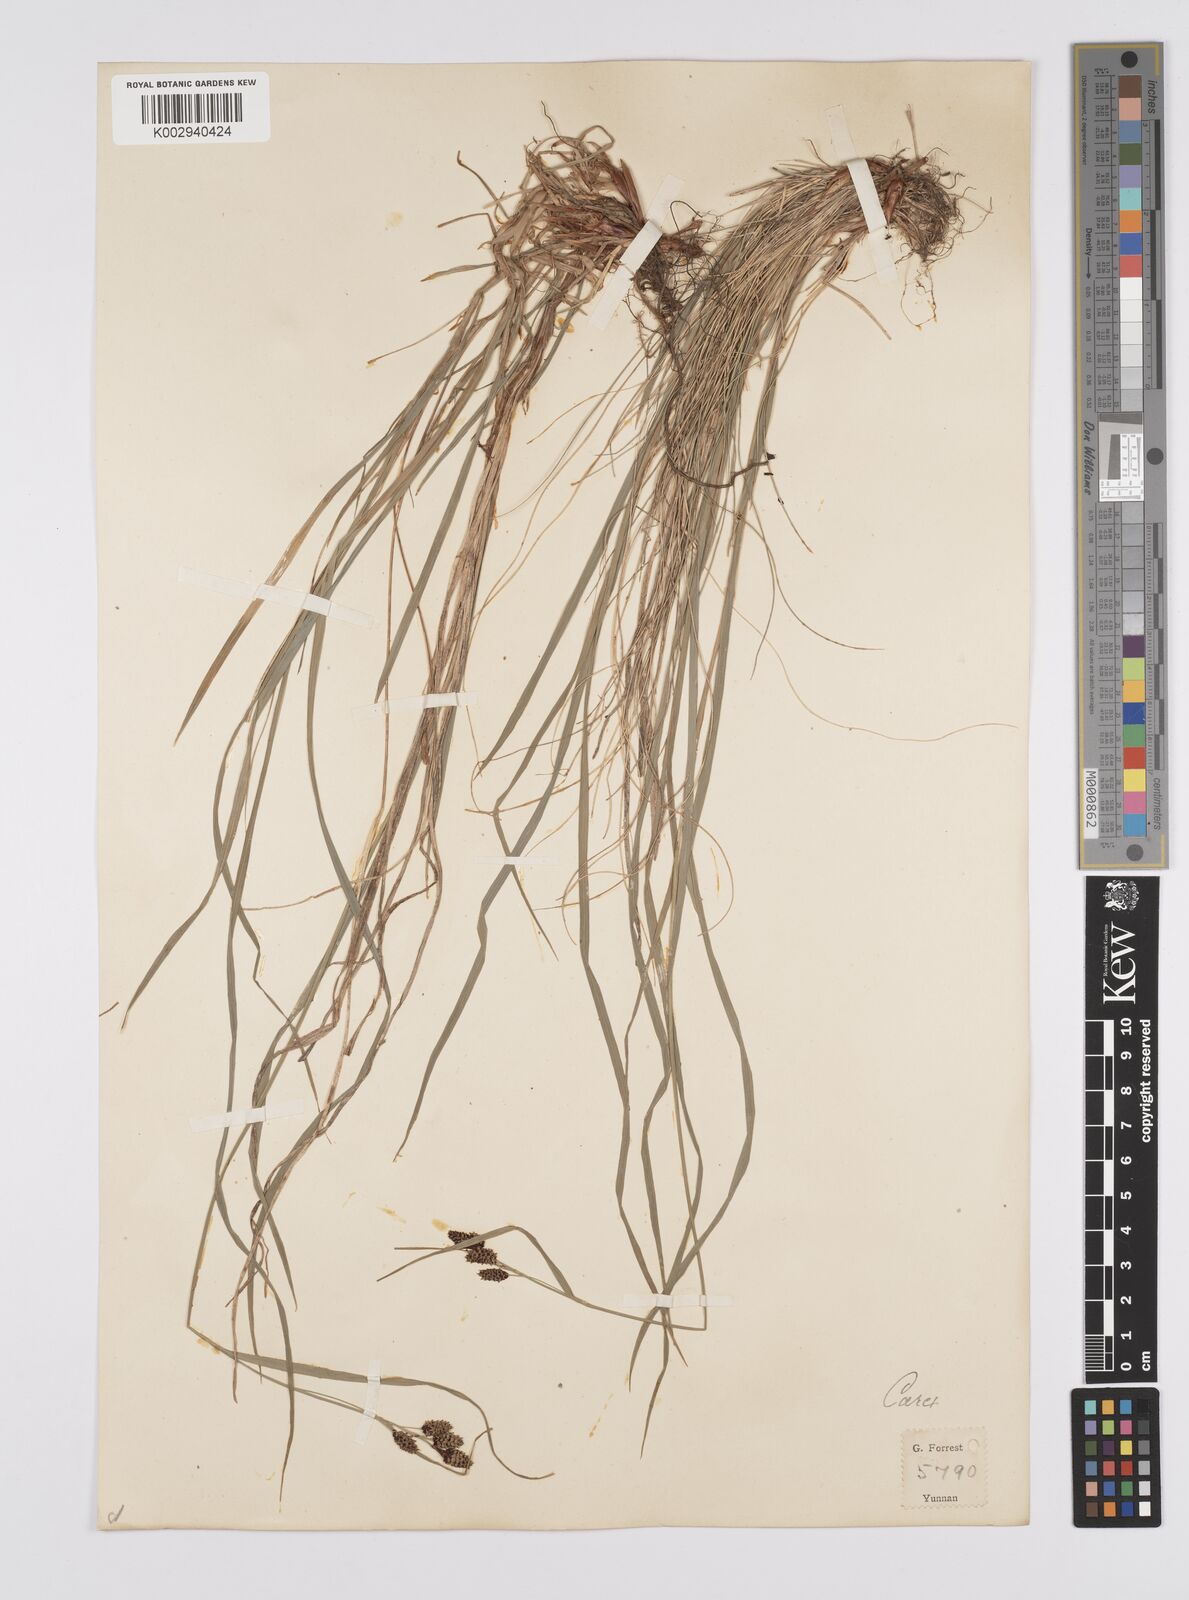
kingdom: Plantae
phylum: Tracheophyta
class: Liliopsida
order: Poales
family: Cyperaceae
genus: Carex
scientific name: Carex lehmannii
